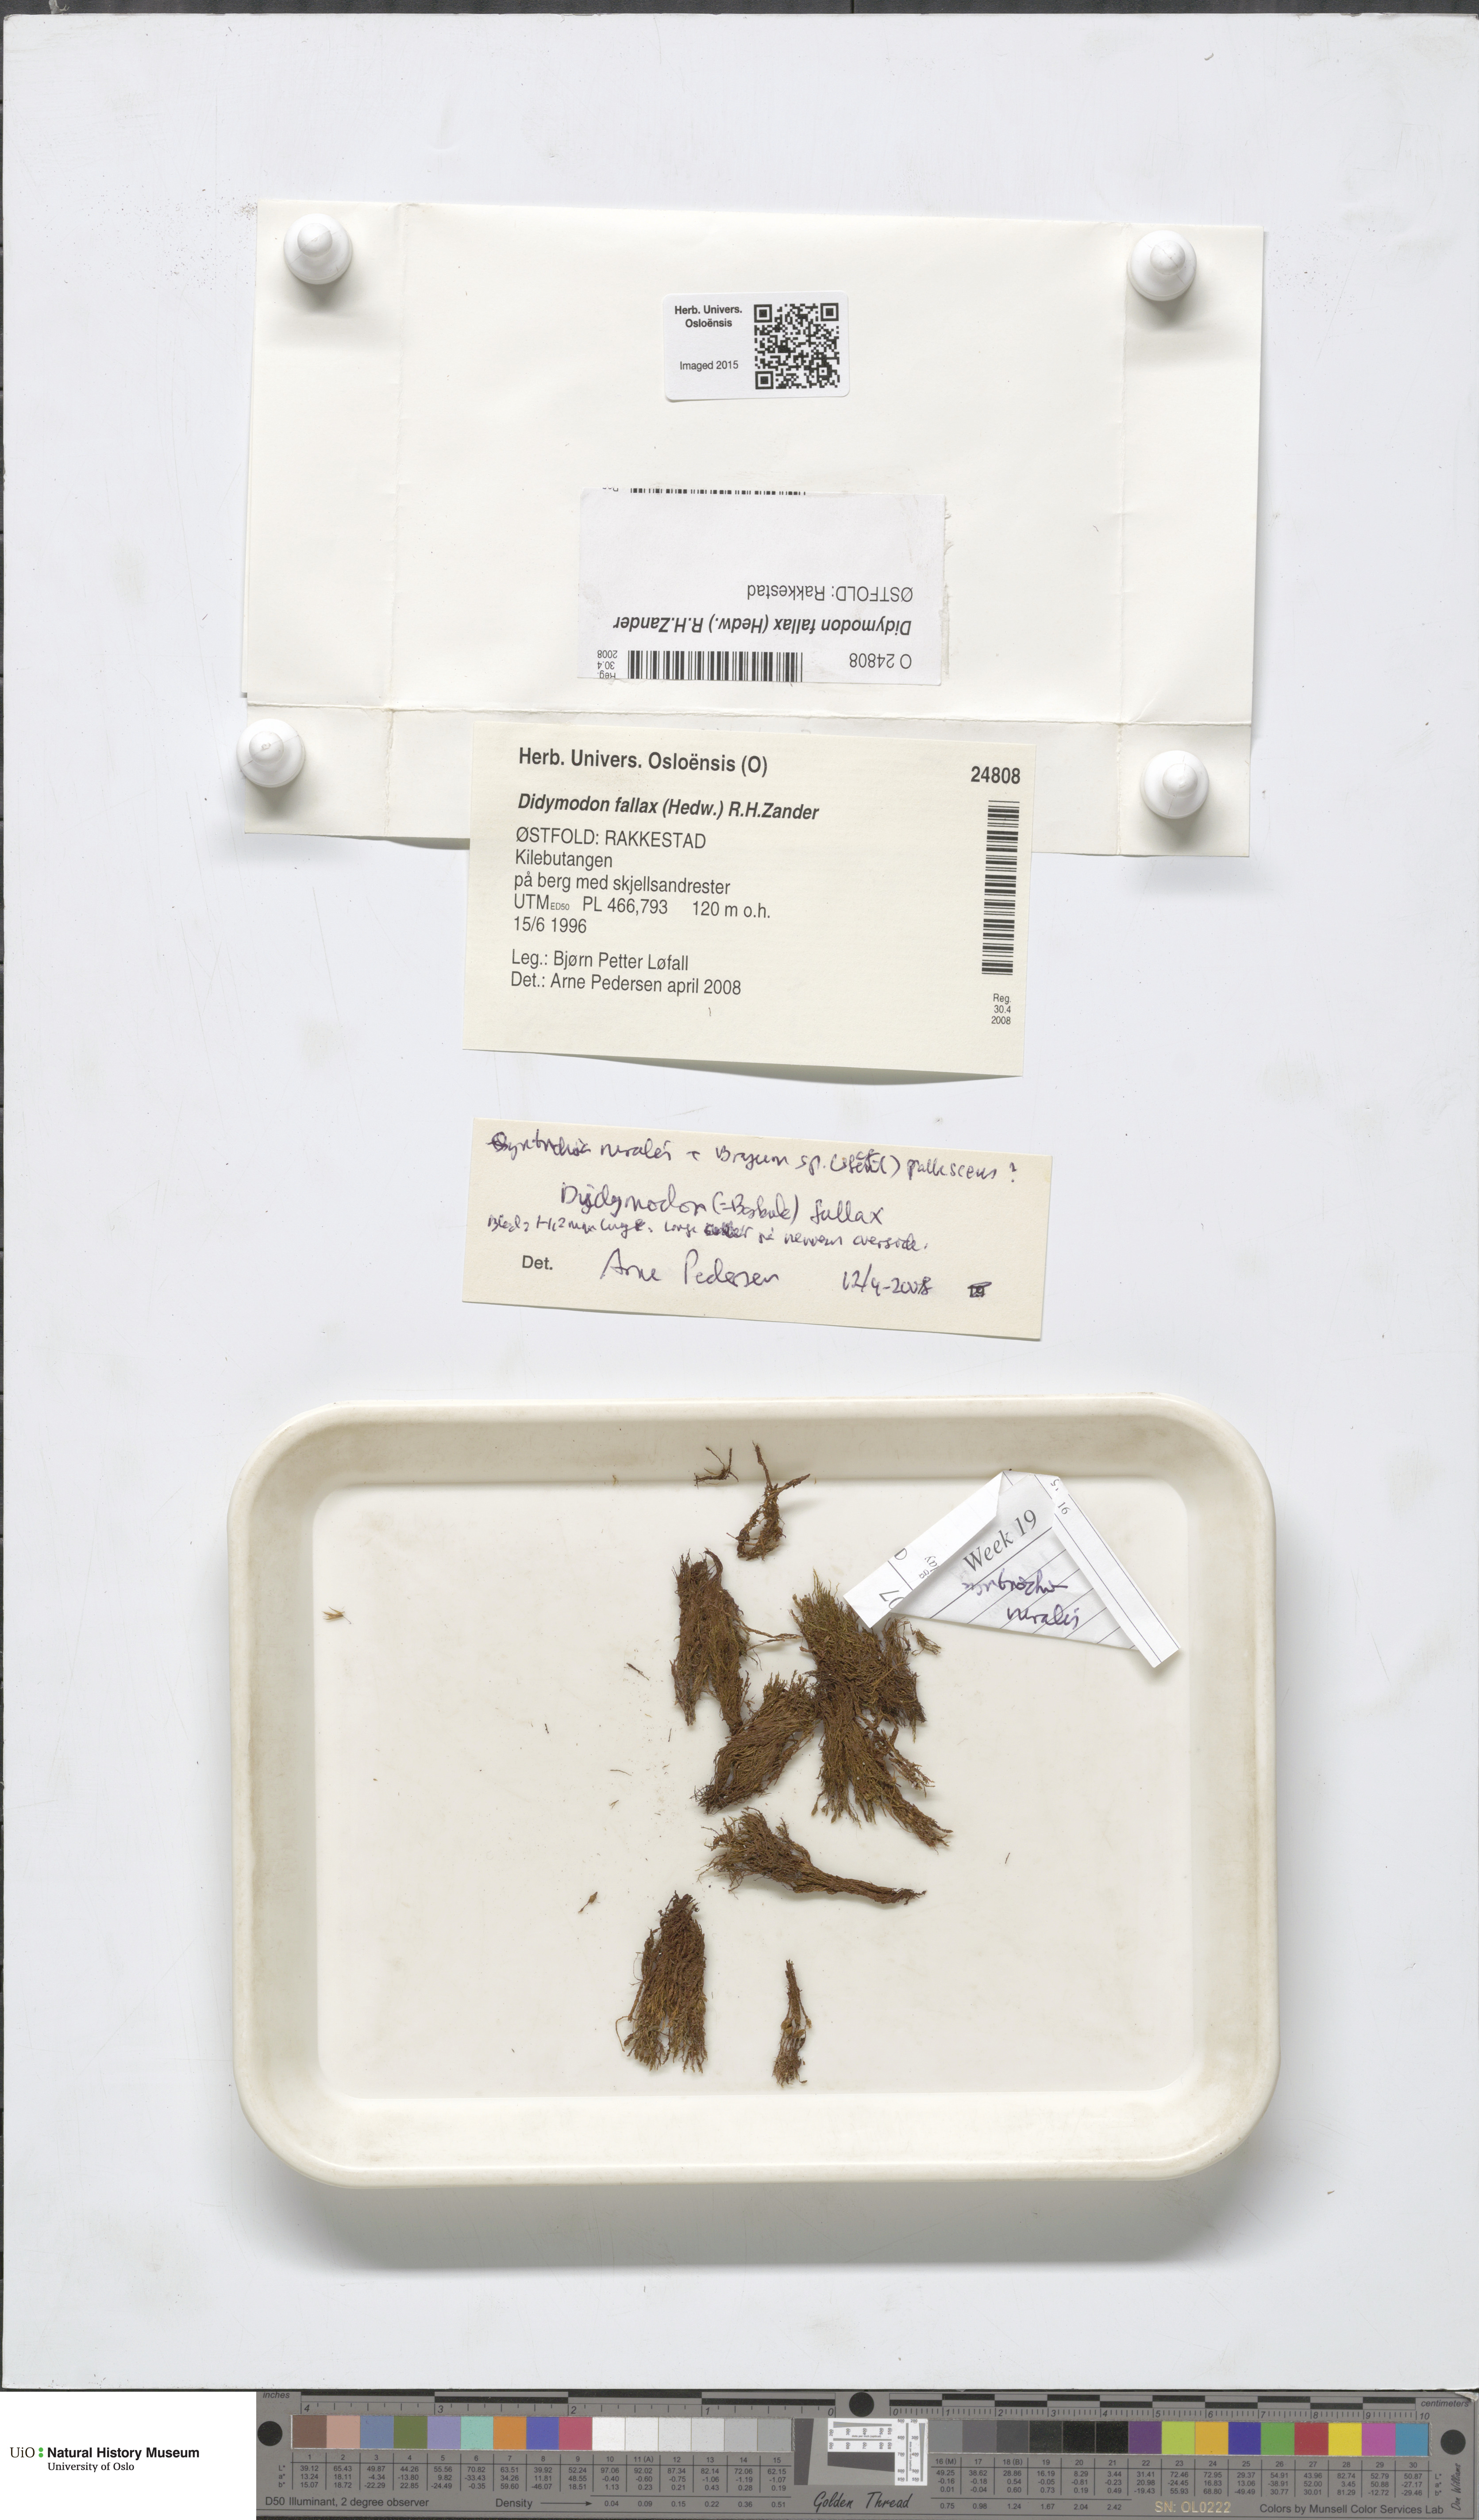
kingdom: Plantae
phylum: Bryophyta
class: Bryopsida
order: Pottiales
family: Pottiaceae
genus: Geheebia
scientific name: Geheebia fallax
